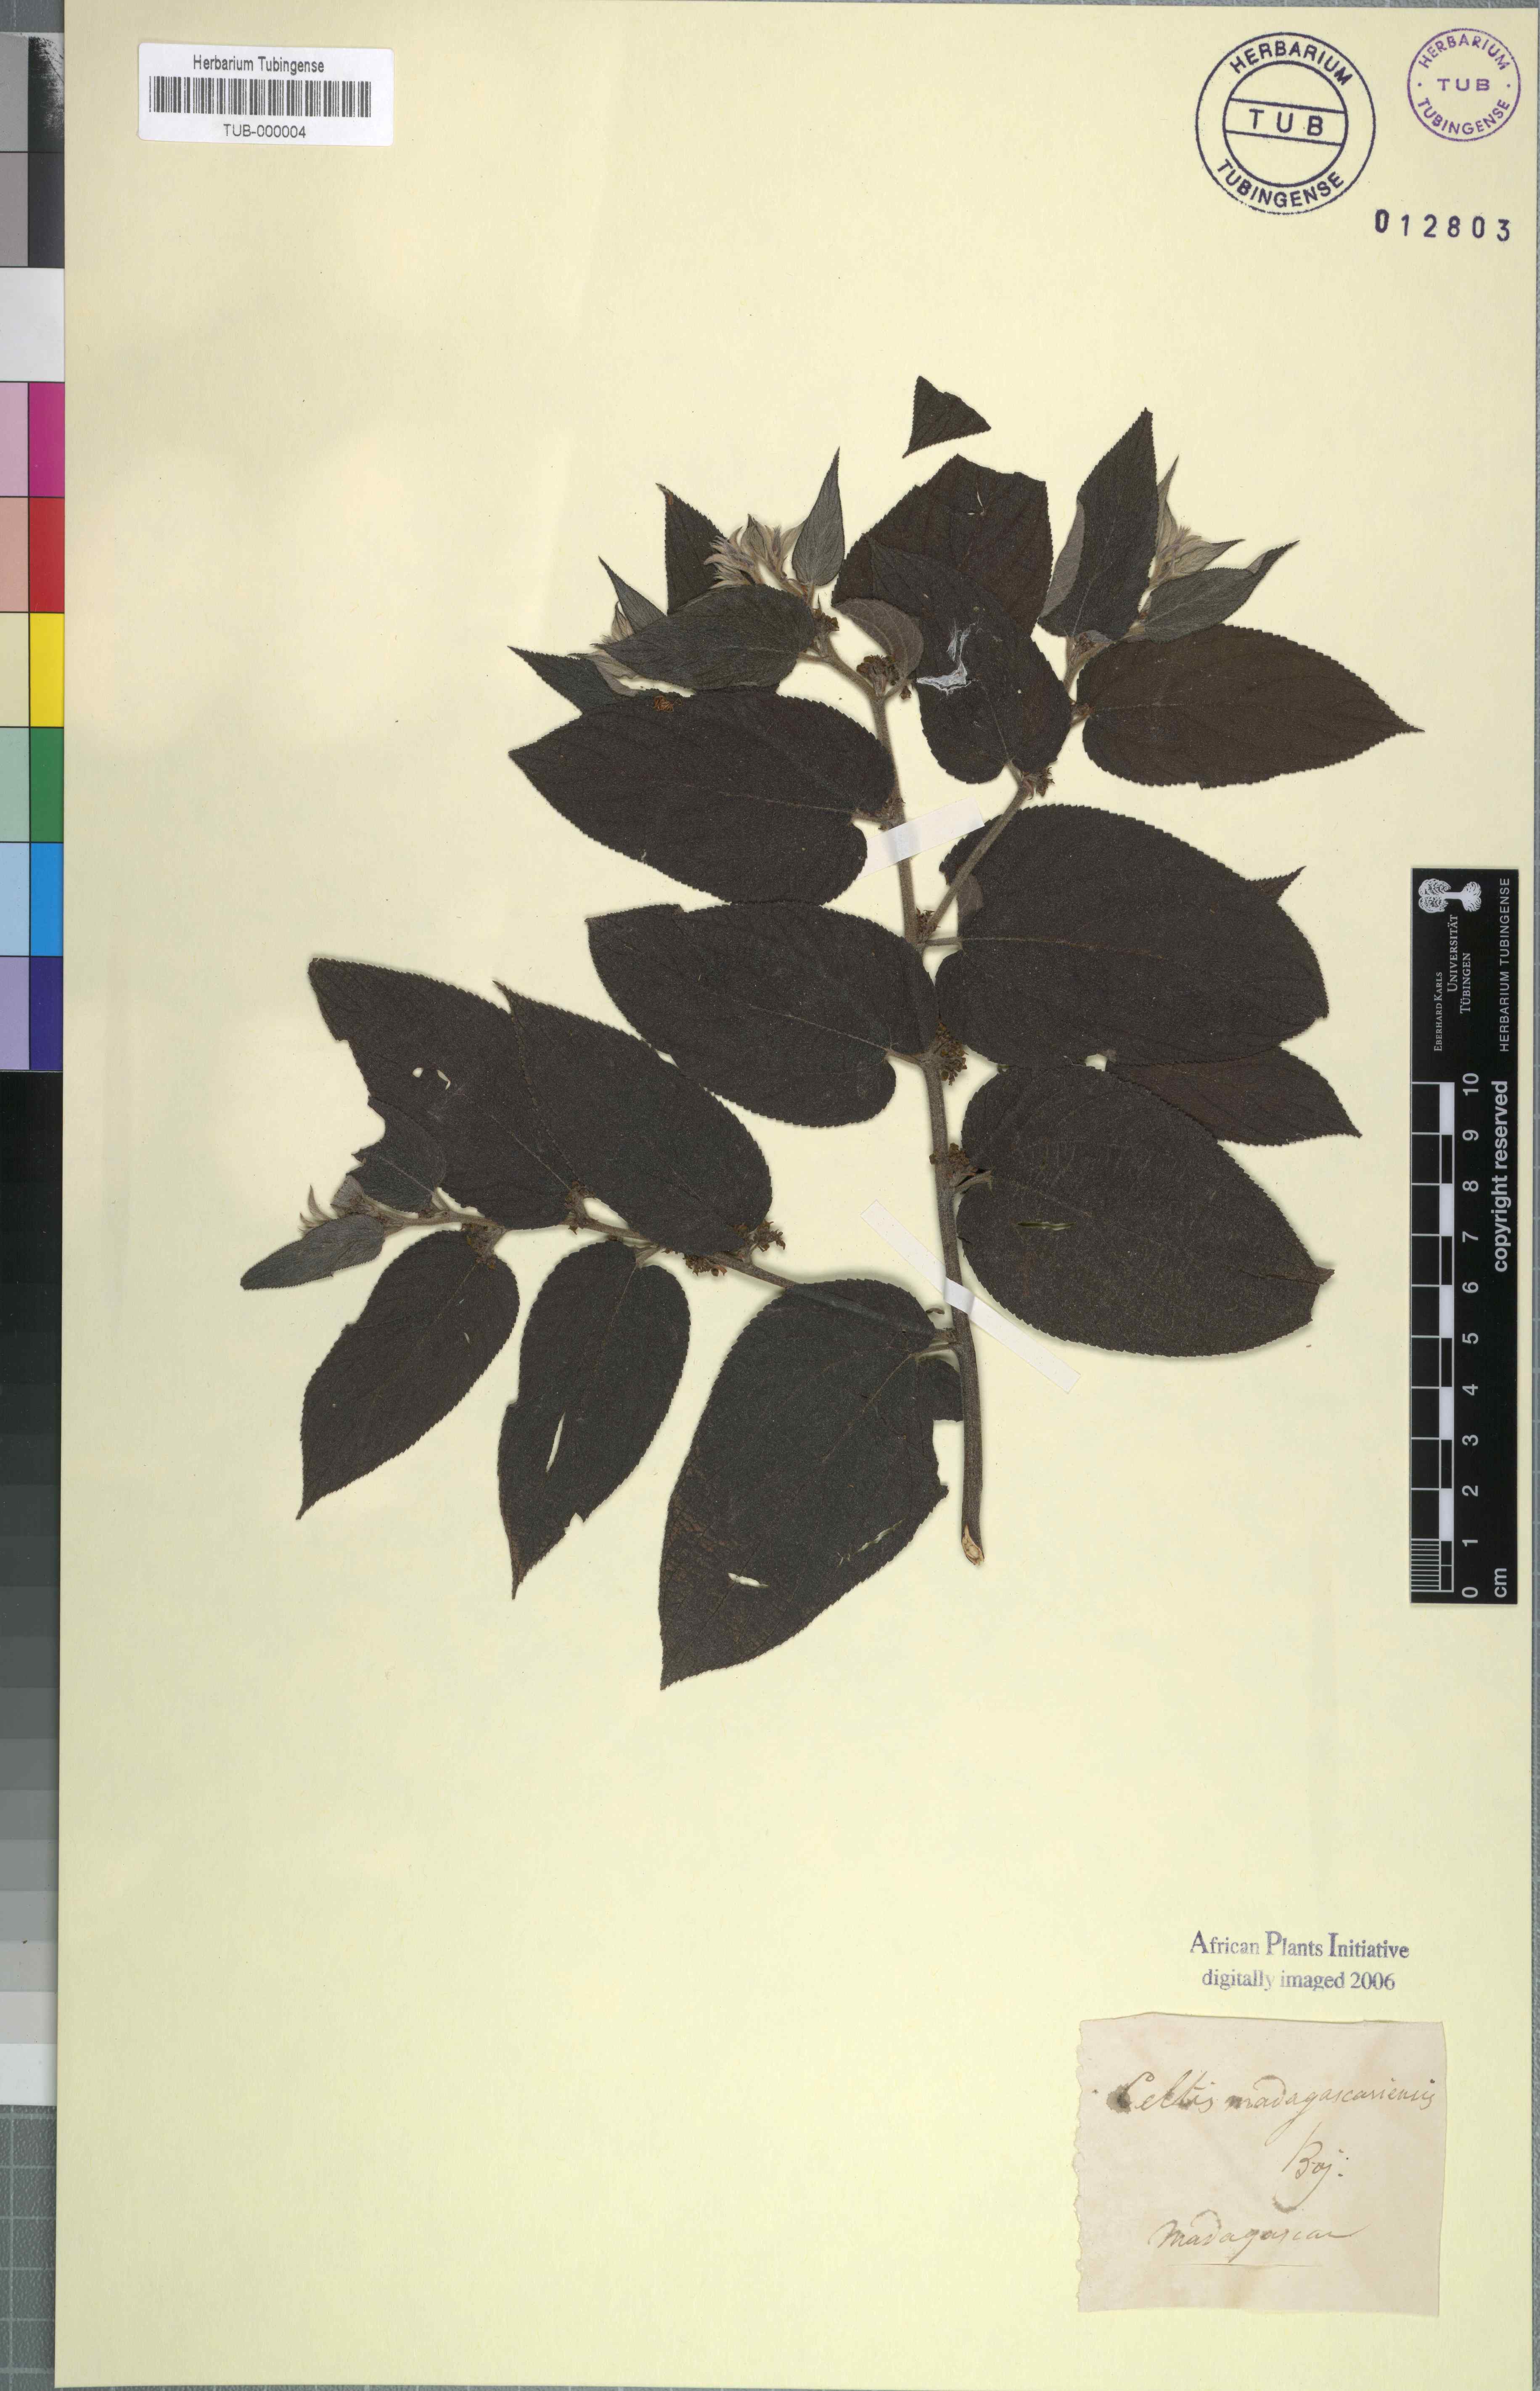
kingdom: Plantae
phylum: Tracheophyta
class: Magnoliopsida
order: Rosales
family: Cannabaceae
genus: Trema
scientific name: Trema orientale
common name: Indian charcoal tree
